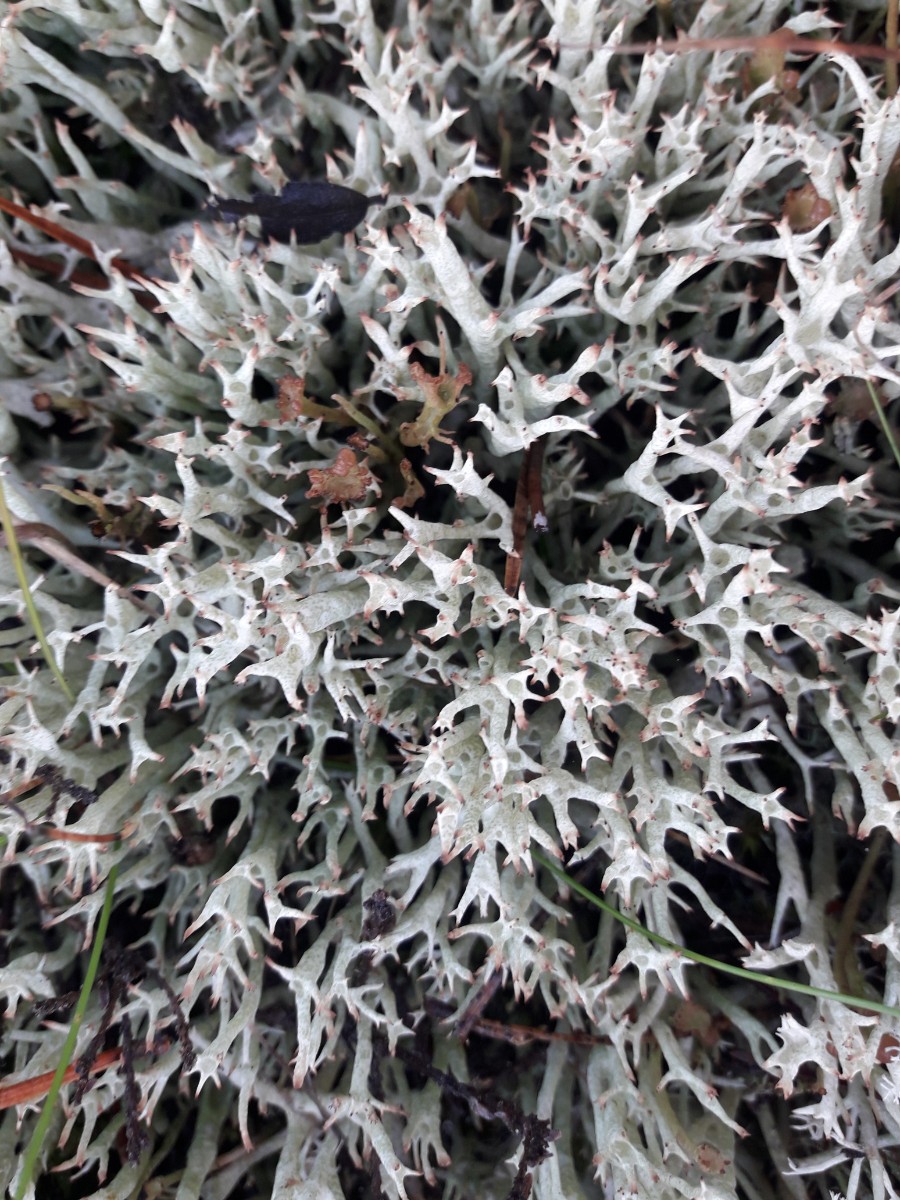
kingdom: Fungi
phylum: Ascomycota
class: Lecanoromycetes
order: Lecanorales
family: Cladoniaceae
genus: Cladonia
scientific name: Cladonia uncialis
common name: pigget bægerlav
